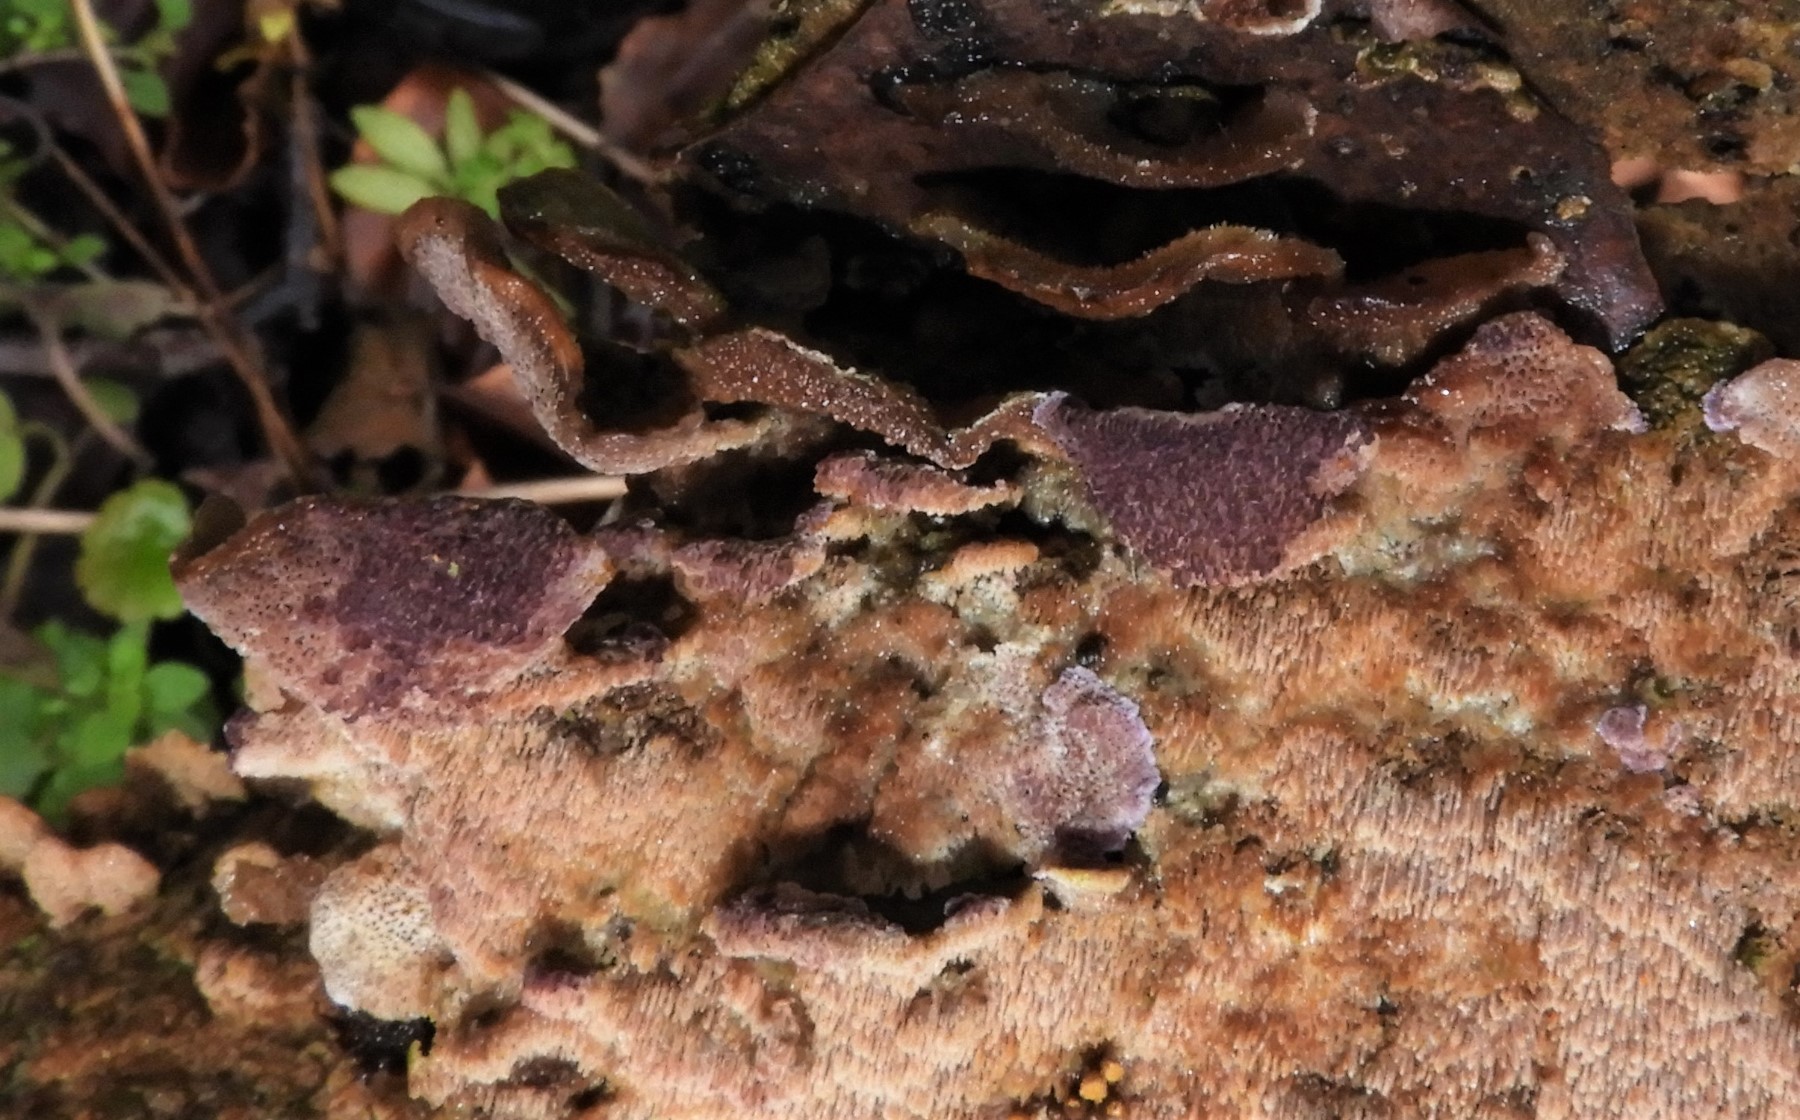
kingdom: Fungi
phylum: Basidiomycota
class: Agaricomycetes
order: Hymenochaetales
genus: Trichaptum
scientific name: Trichaptum abietinum
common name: almindelig violporesvamp
